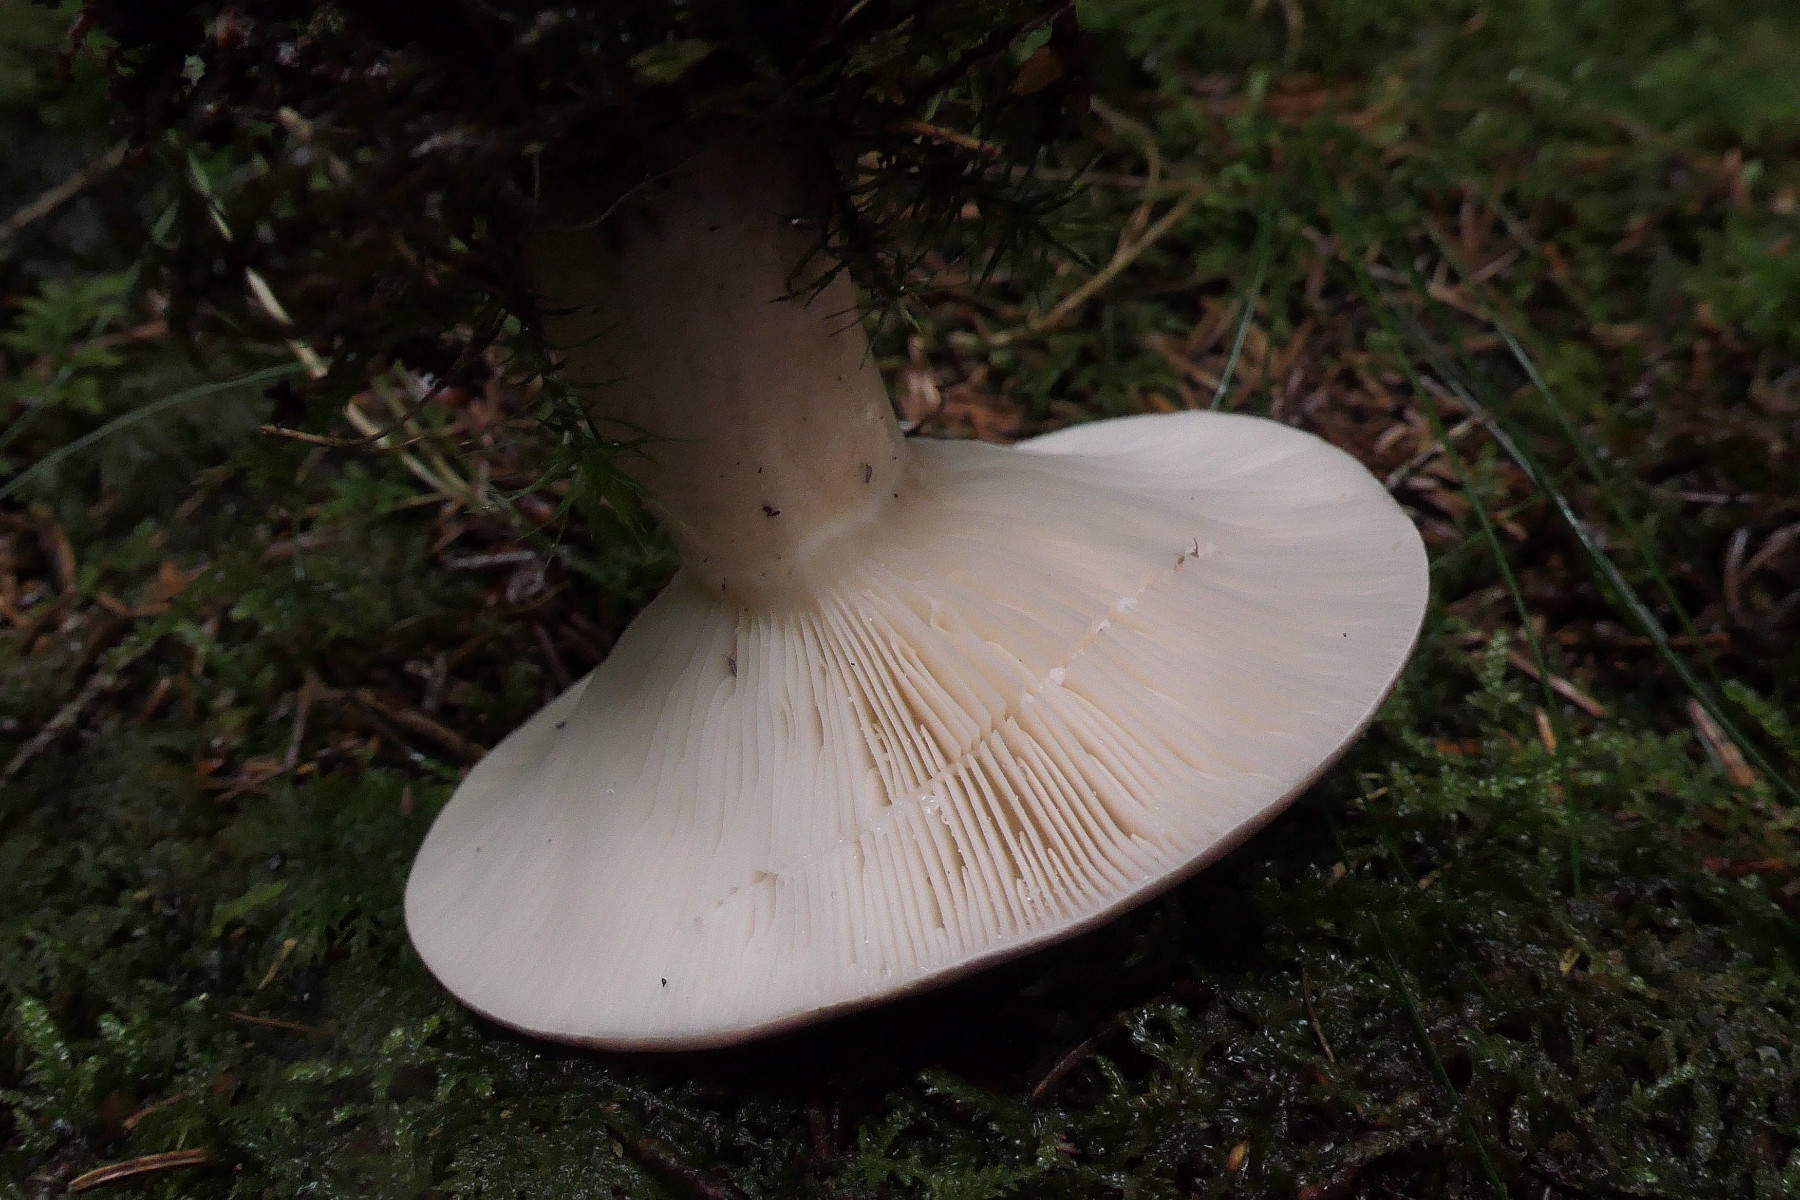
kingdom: Fungi
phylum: Basidiomycota
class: Agaricomycetes
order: Russulales
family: Russulaceae
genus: Lactarius
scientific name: Lactarius trivialis
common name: nordisk mælkehat
